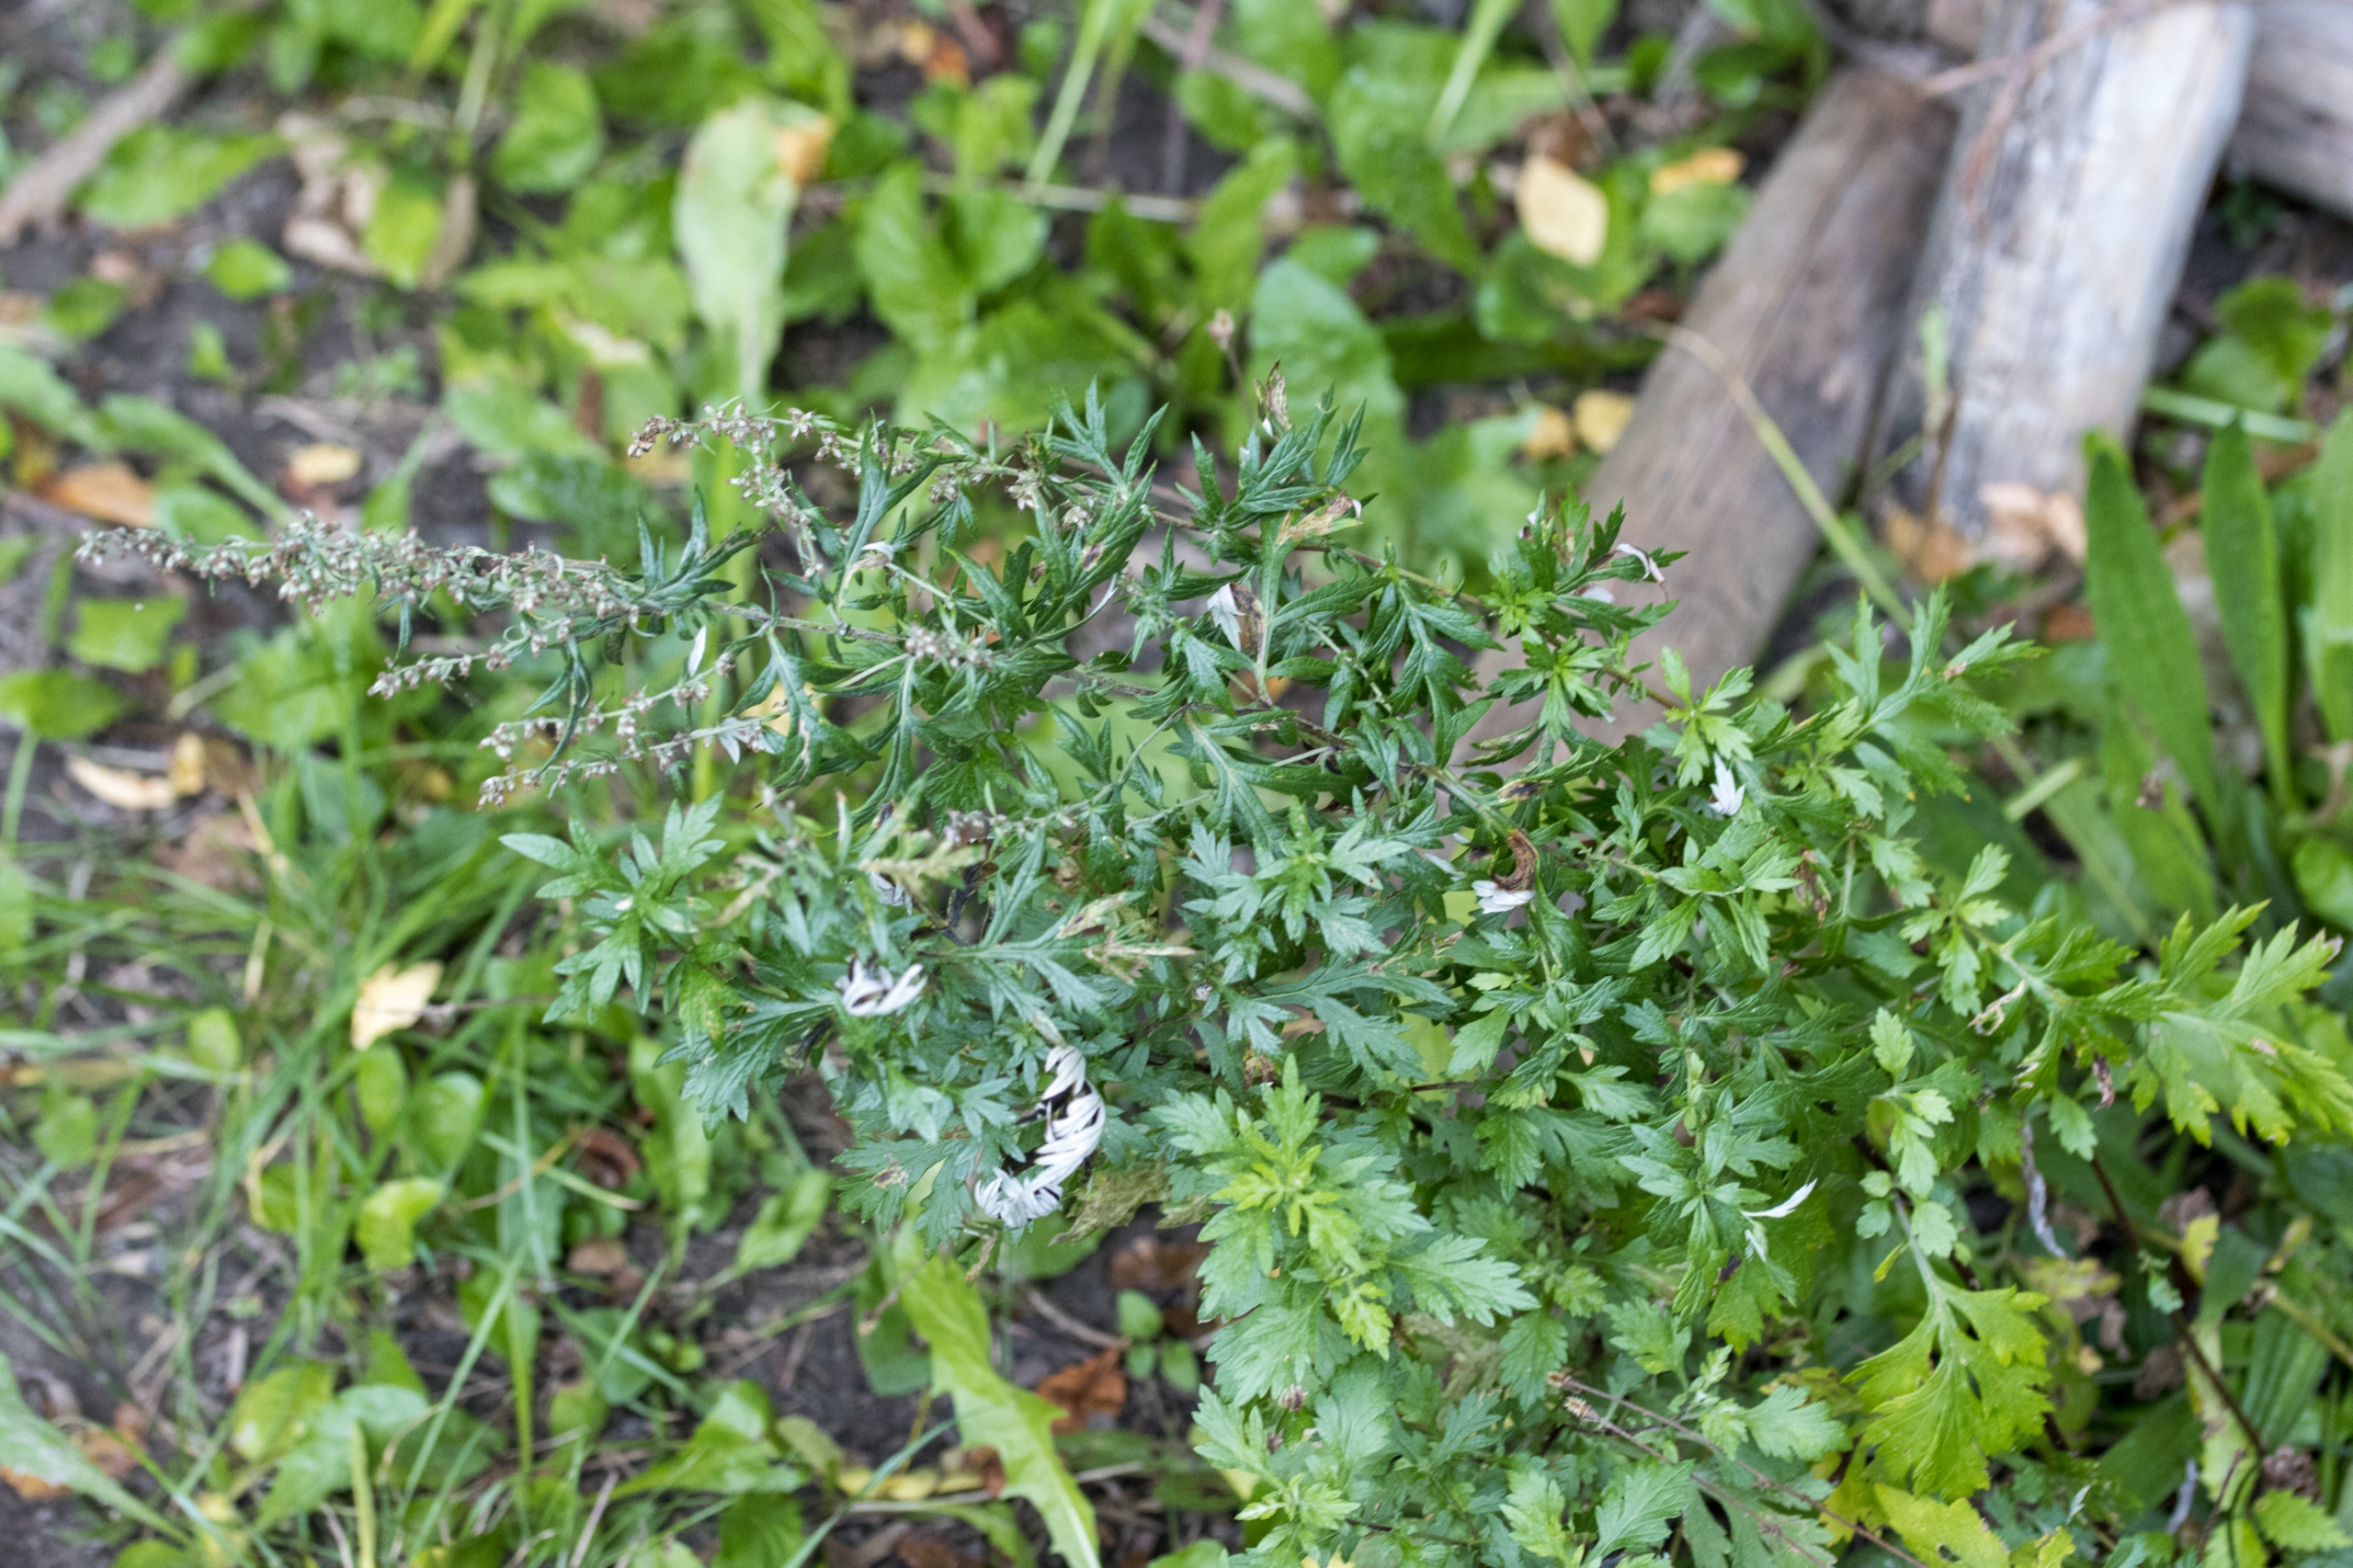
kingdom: Plantae
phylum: Tracheophyta
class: Magnoliopsida
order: Asterales
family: Asteraceae
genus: Artemisia
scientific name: Artemisia vulgaris
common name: Grå-bynke
